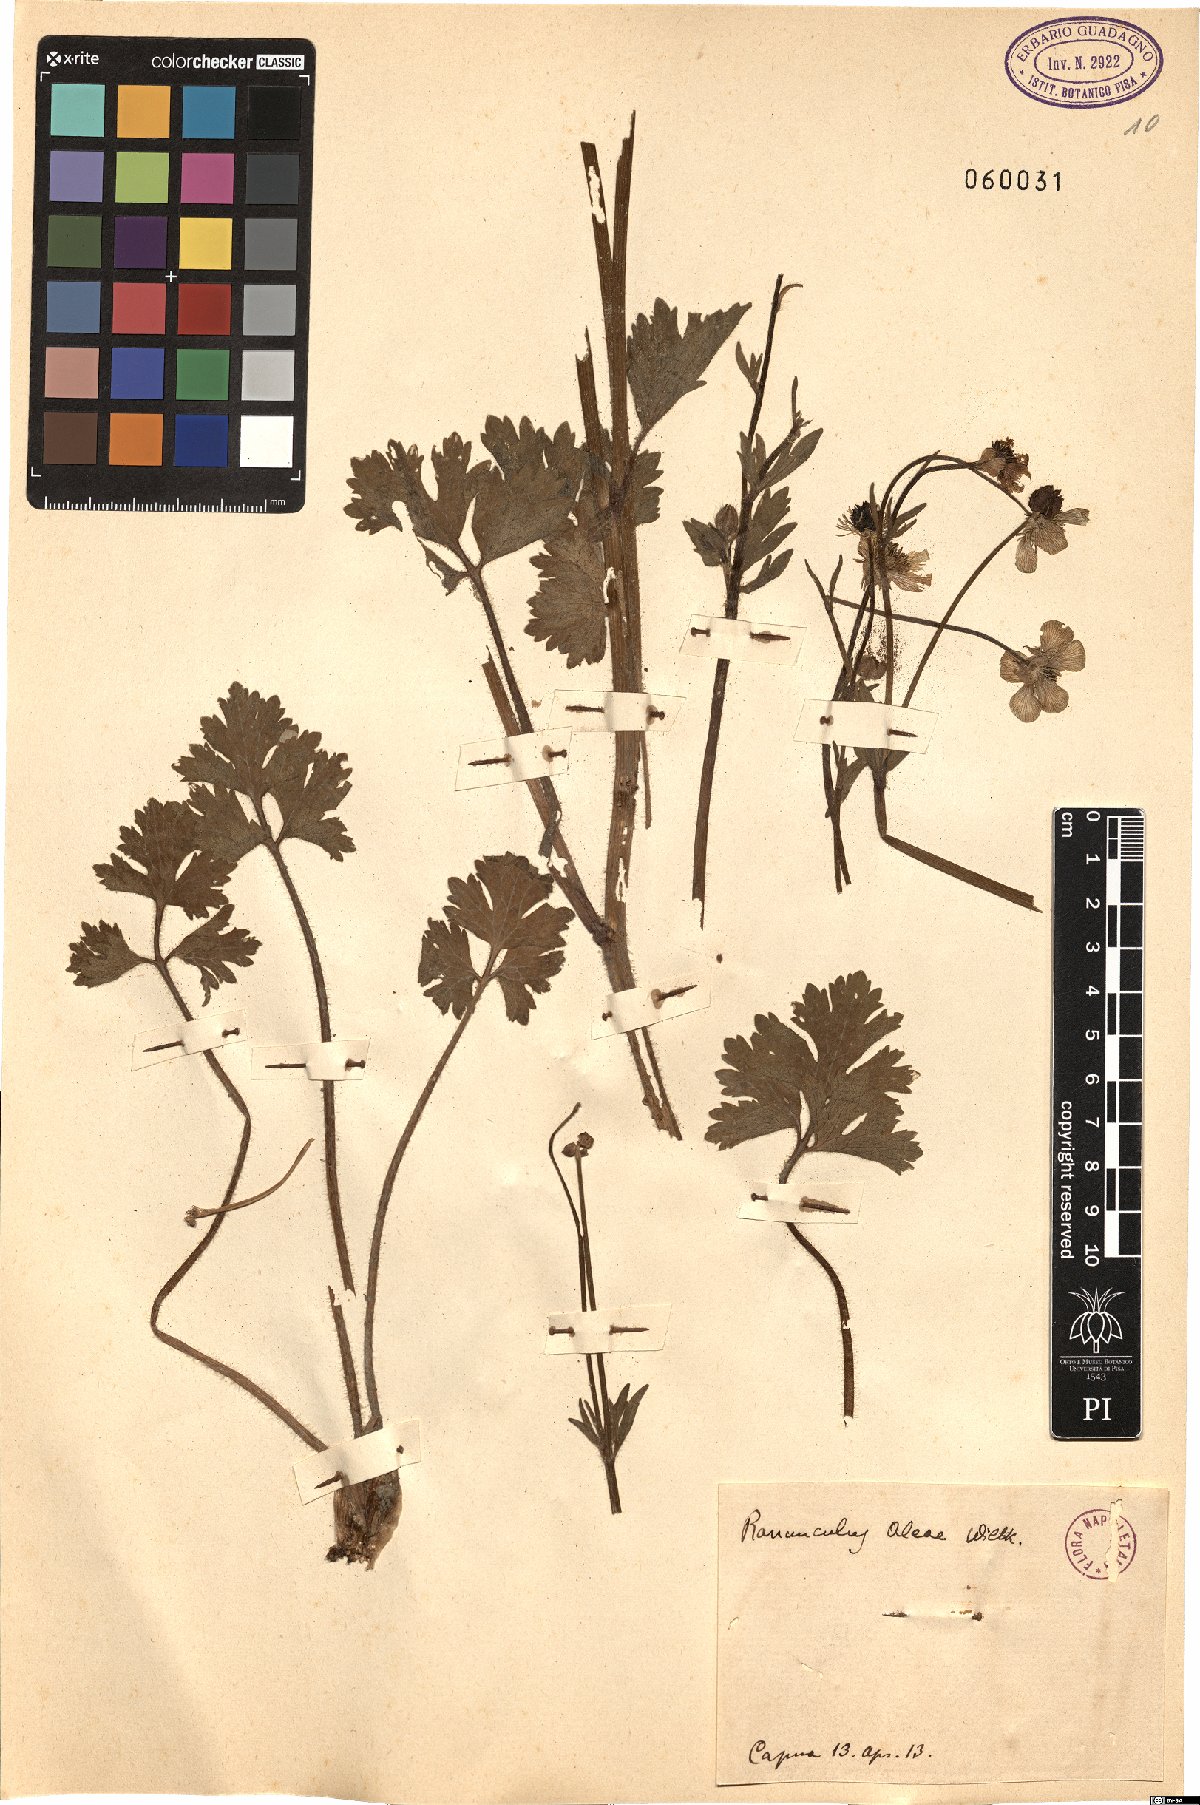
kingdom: Plantae
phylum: Tracheophyta
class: Magnoliopsida
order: Ranunculales
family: Ranunculaceae
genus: Ranunculus
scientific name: Ranunculus neapolitanus
